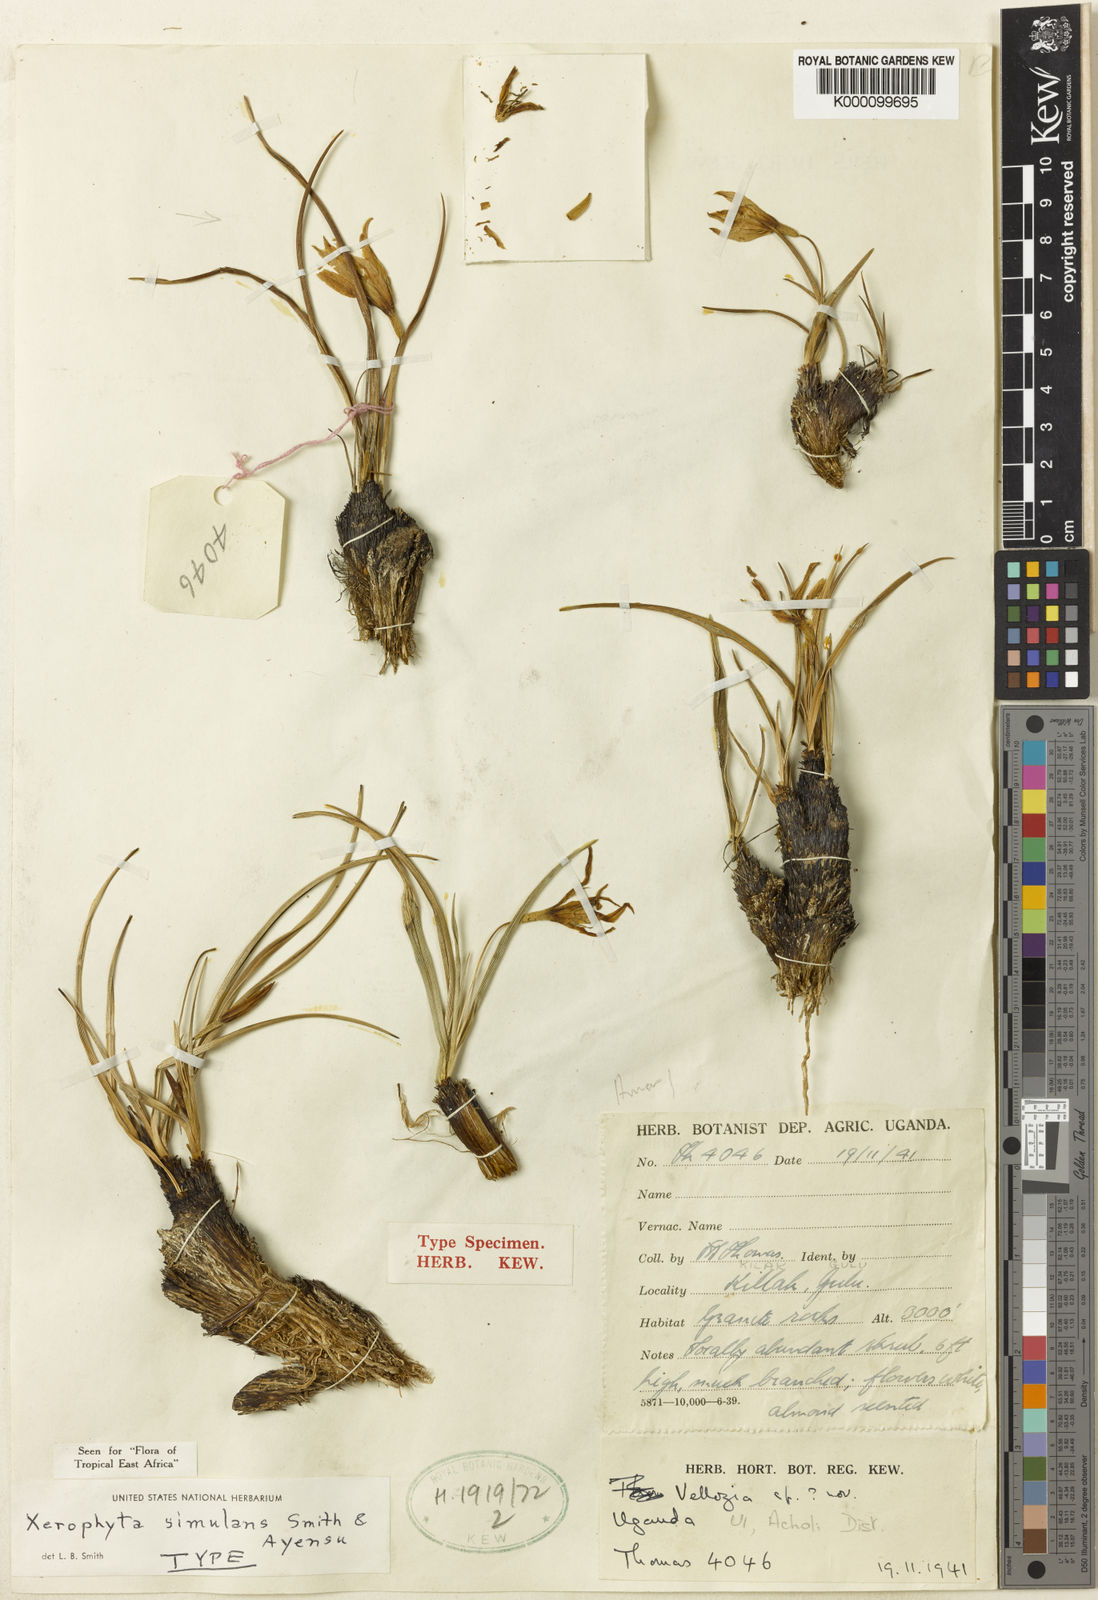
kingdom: Plantae
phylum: Tracheophyta
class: Liliopsida
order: Pandanales
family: Velloziaceae
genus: Xerophyta
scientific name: Xerophyta simulans
